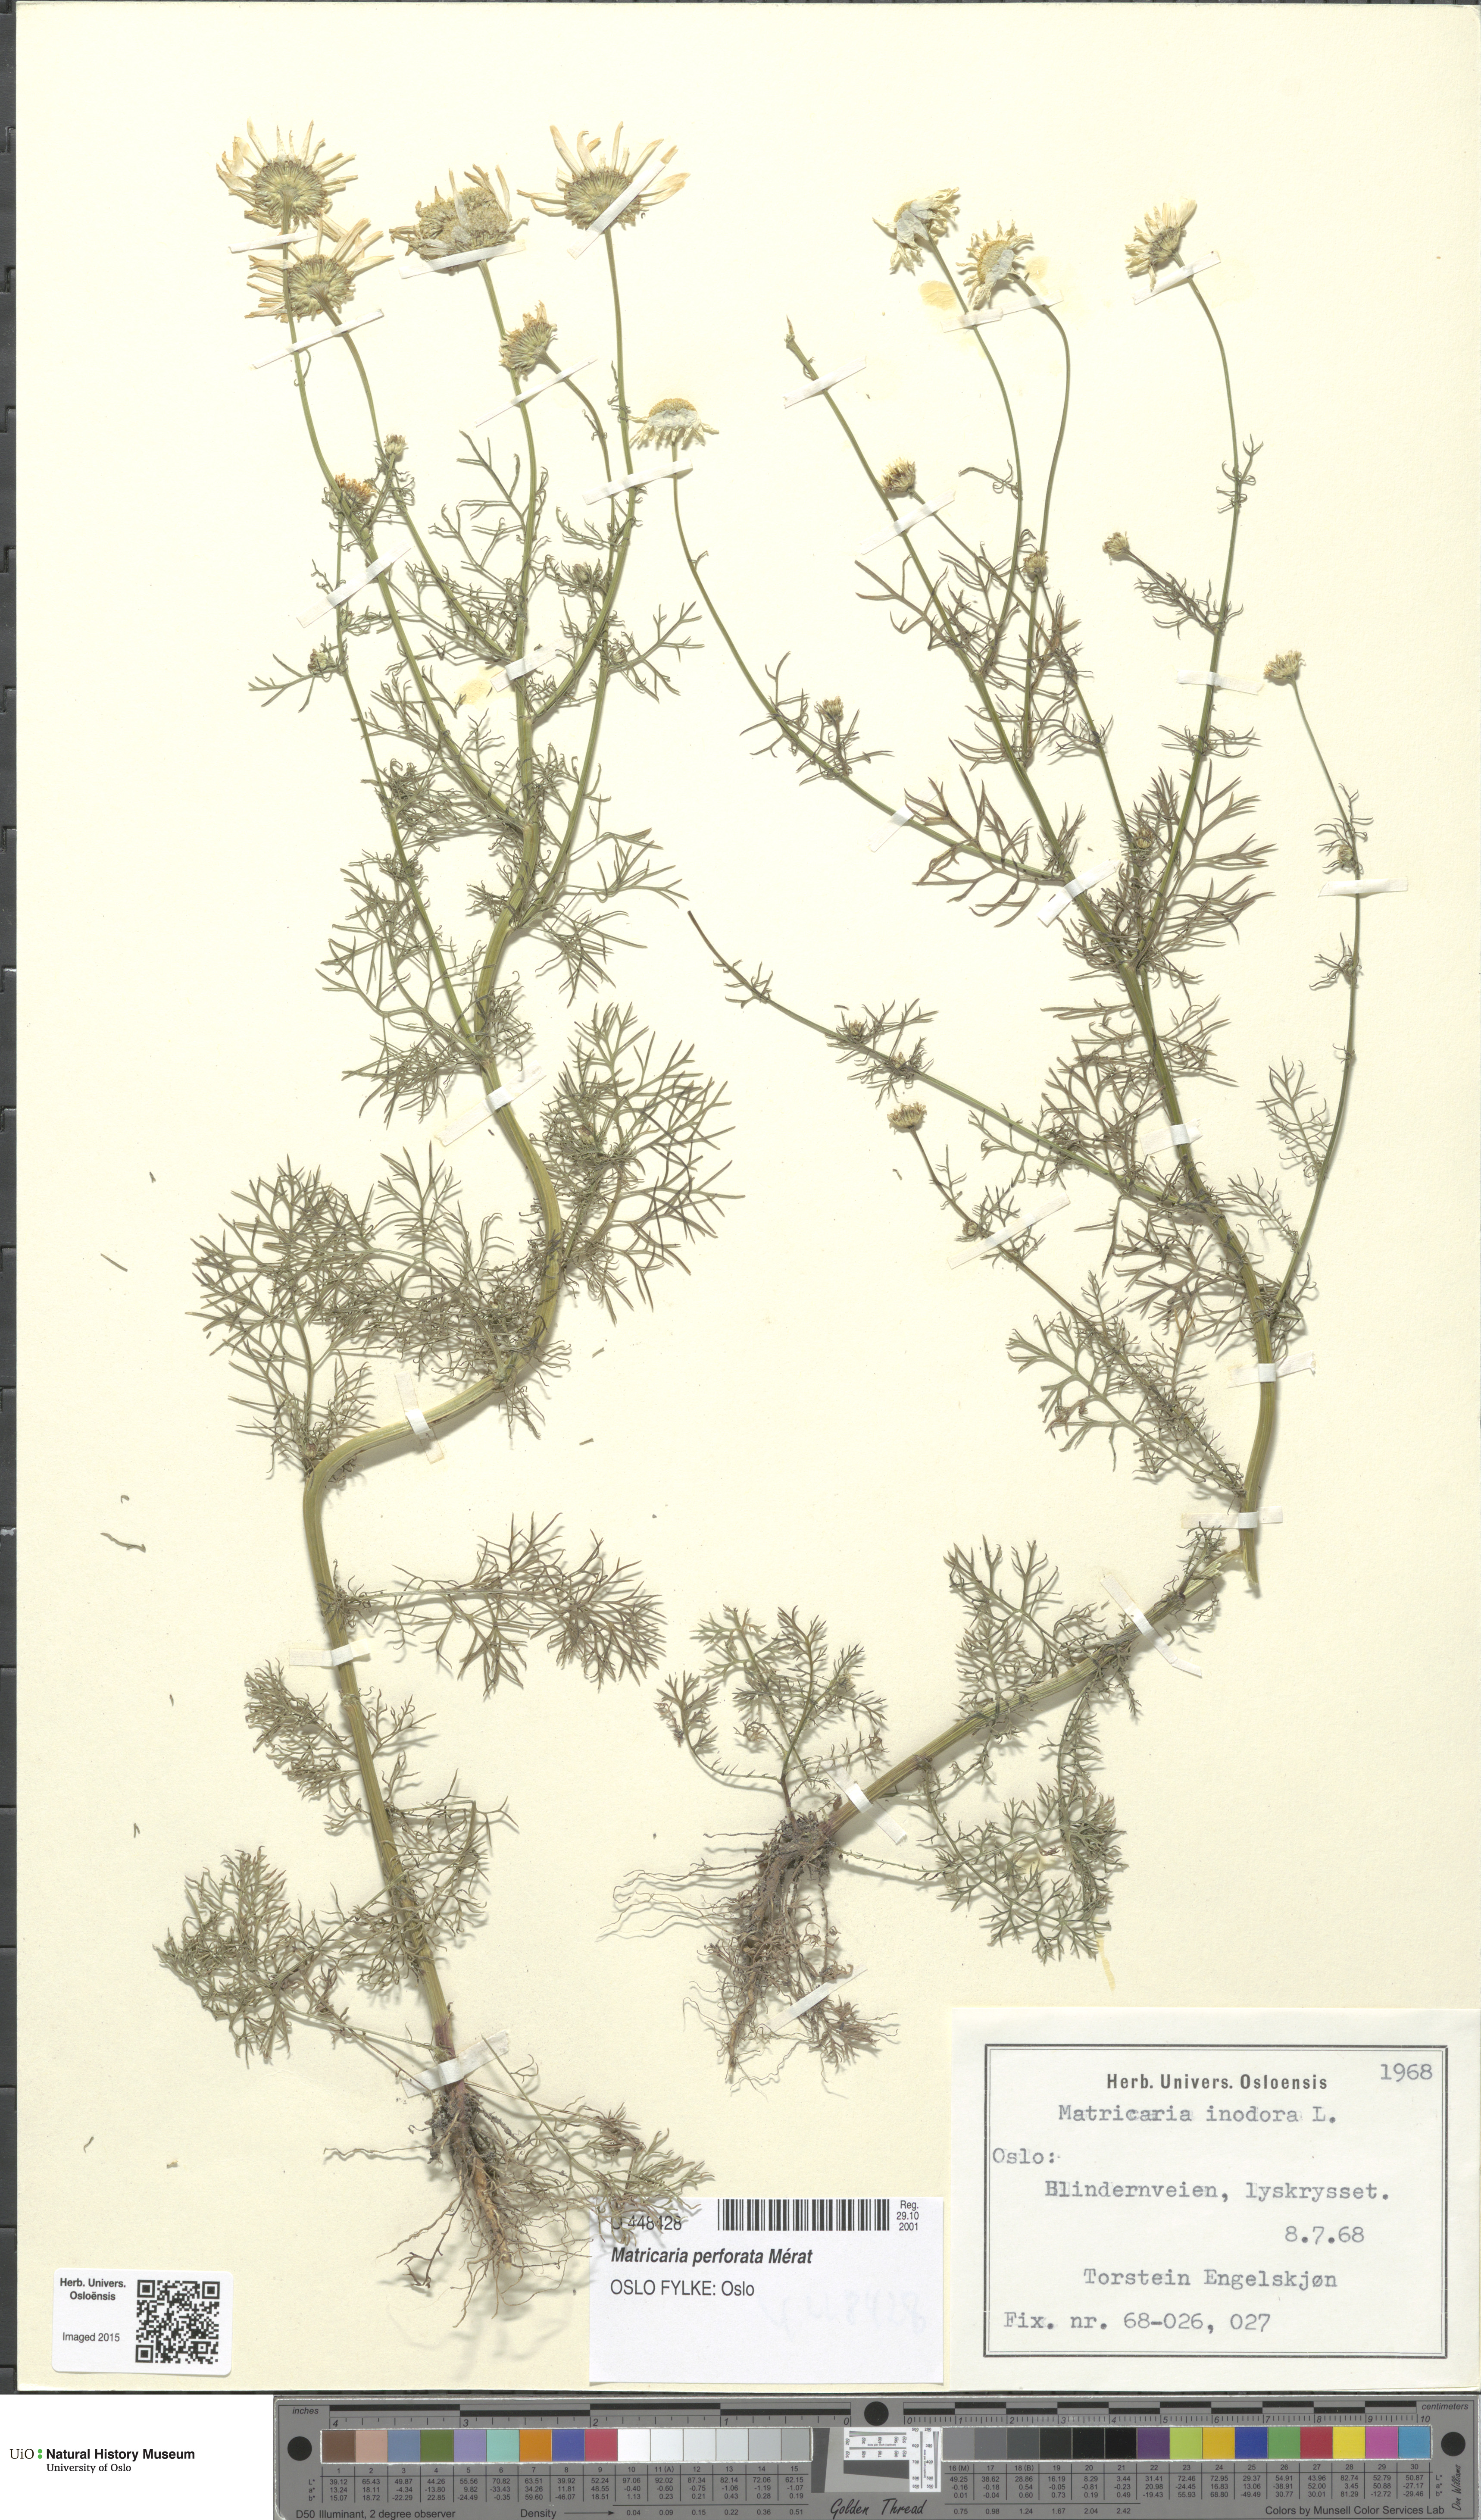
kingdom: Plantae
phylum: Tracheophyta
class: Magnoliopsida
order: Asterales
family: Asteraceae
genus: Tripleurospermum
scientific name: Tripleurospermum inodorum
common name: Scentless mayweed
